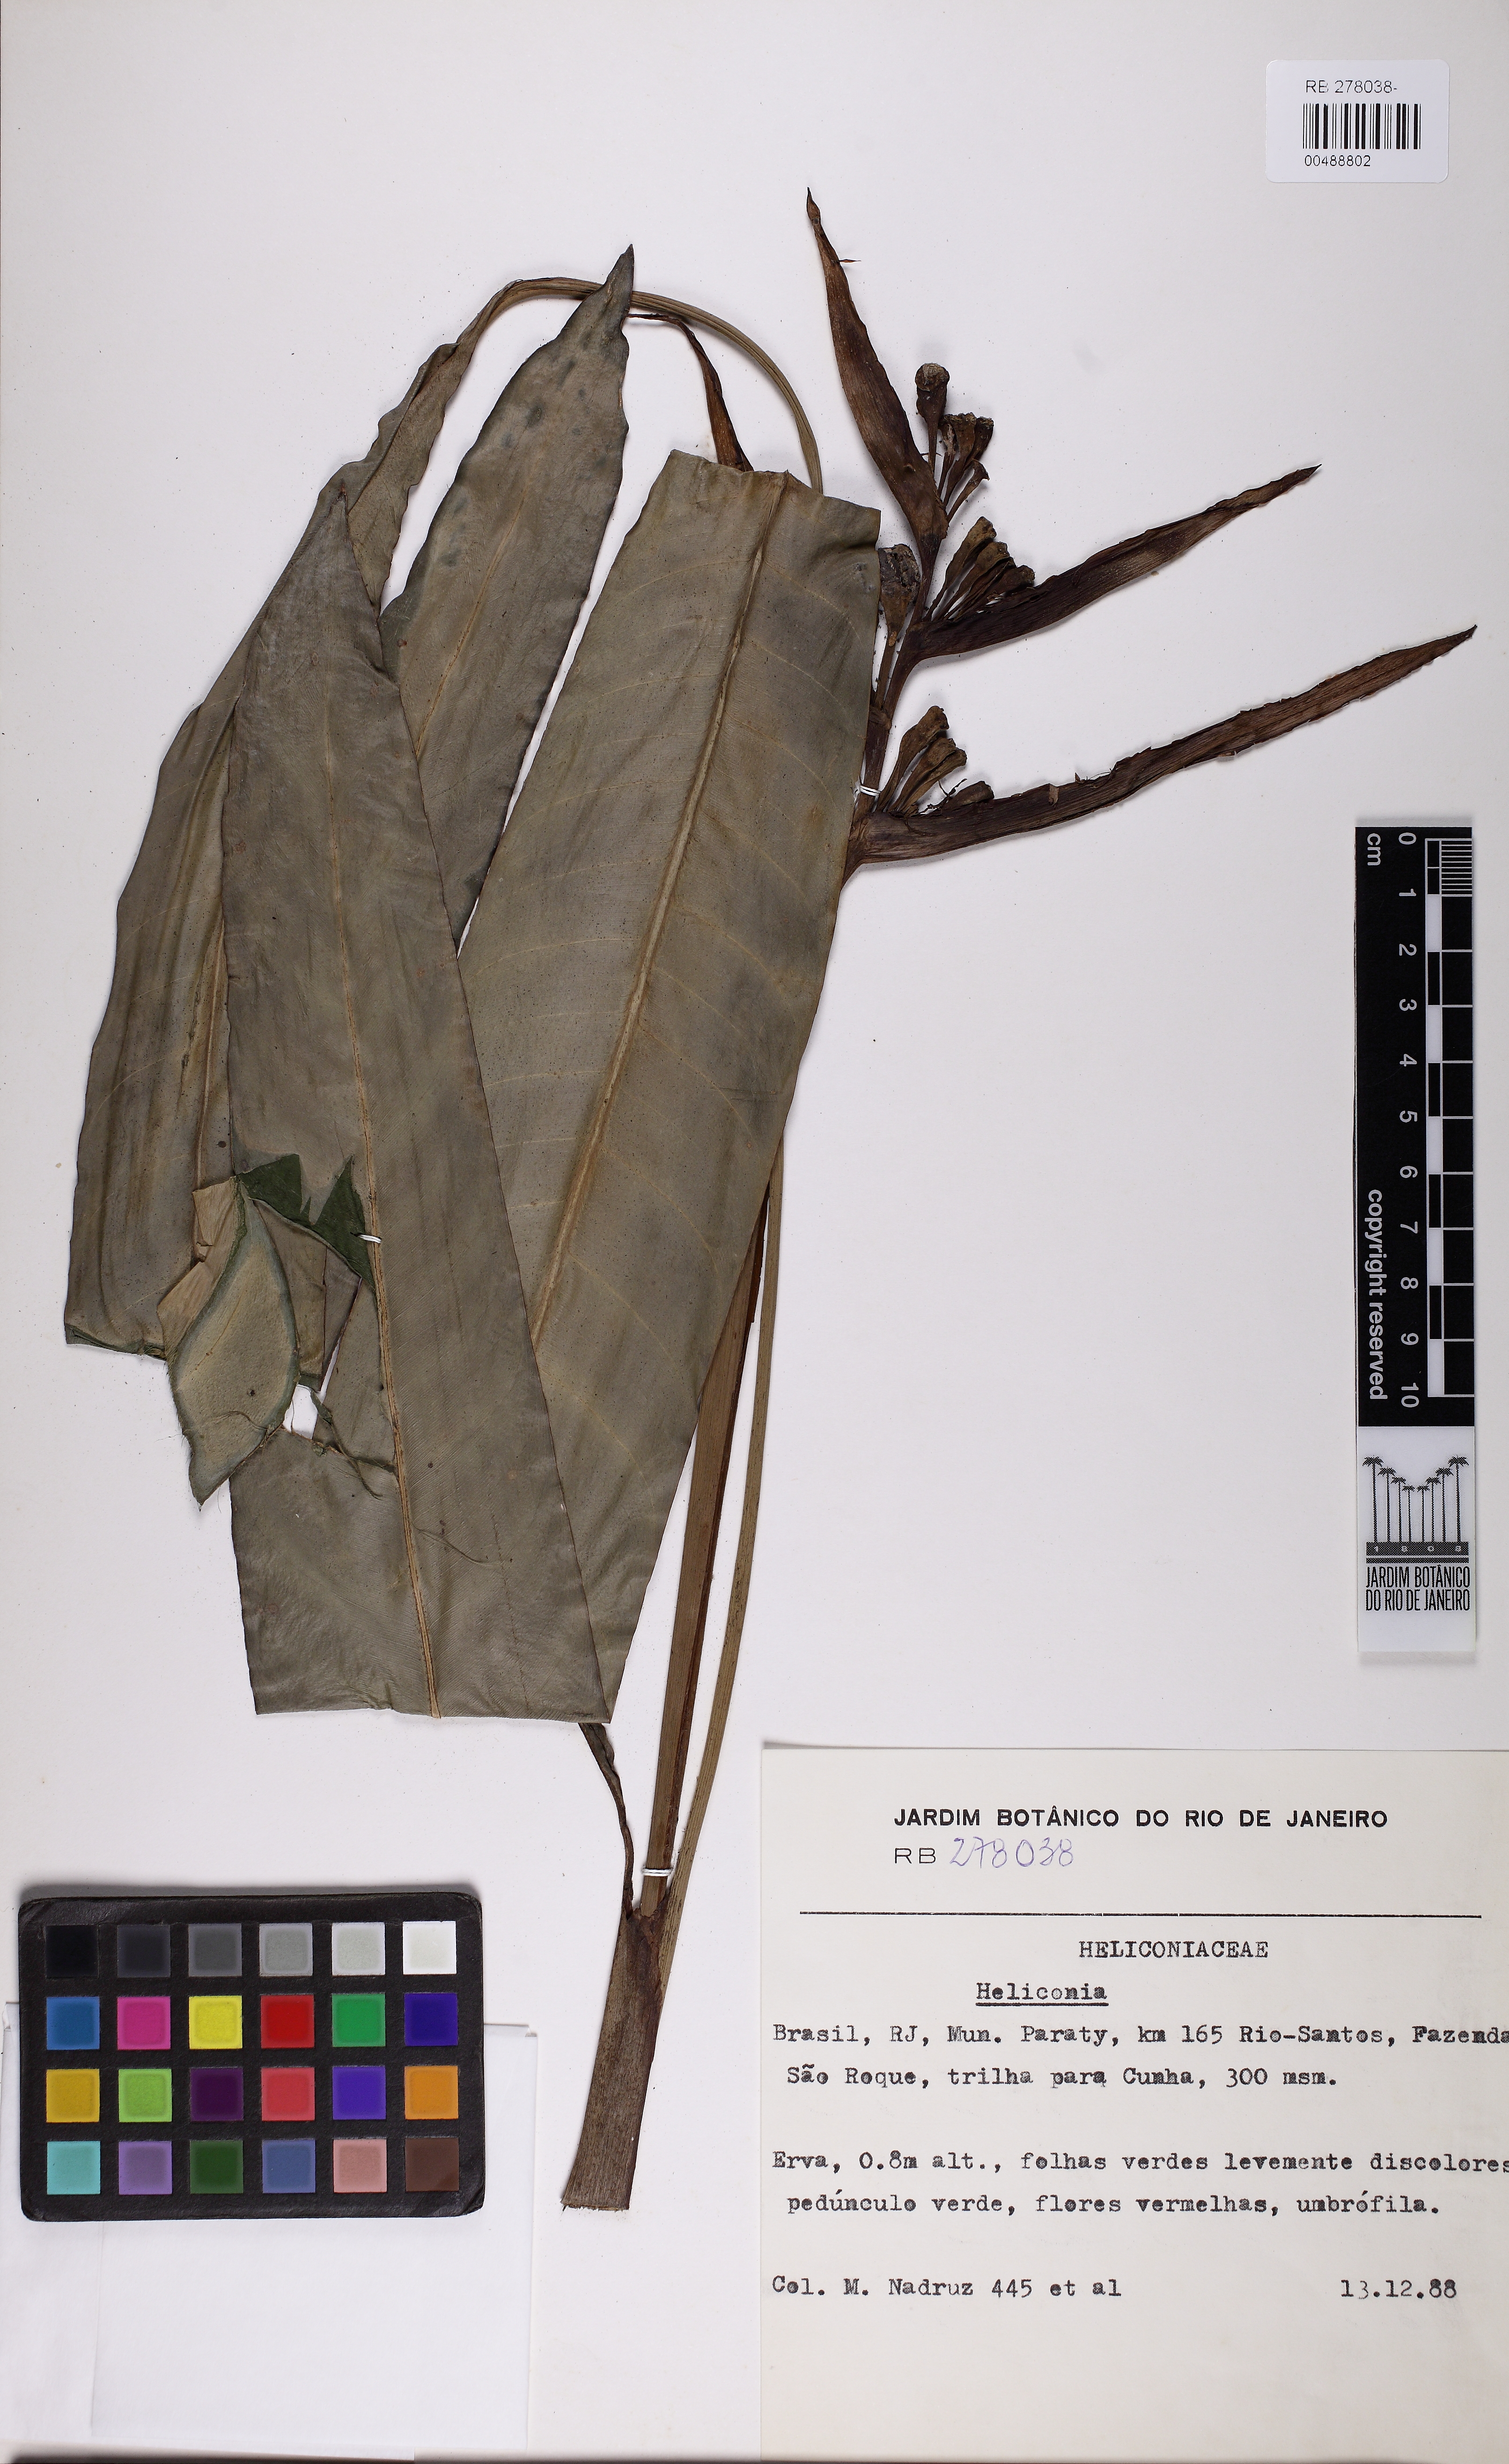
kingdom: Plantae
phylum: Tracheophyta
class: Liliopsida
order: Zingiberales
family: Heliconiaceae
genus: Heliconia
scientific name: Heliconia angusta
